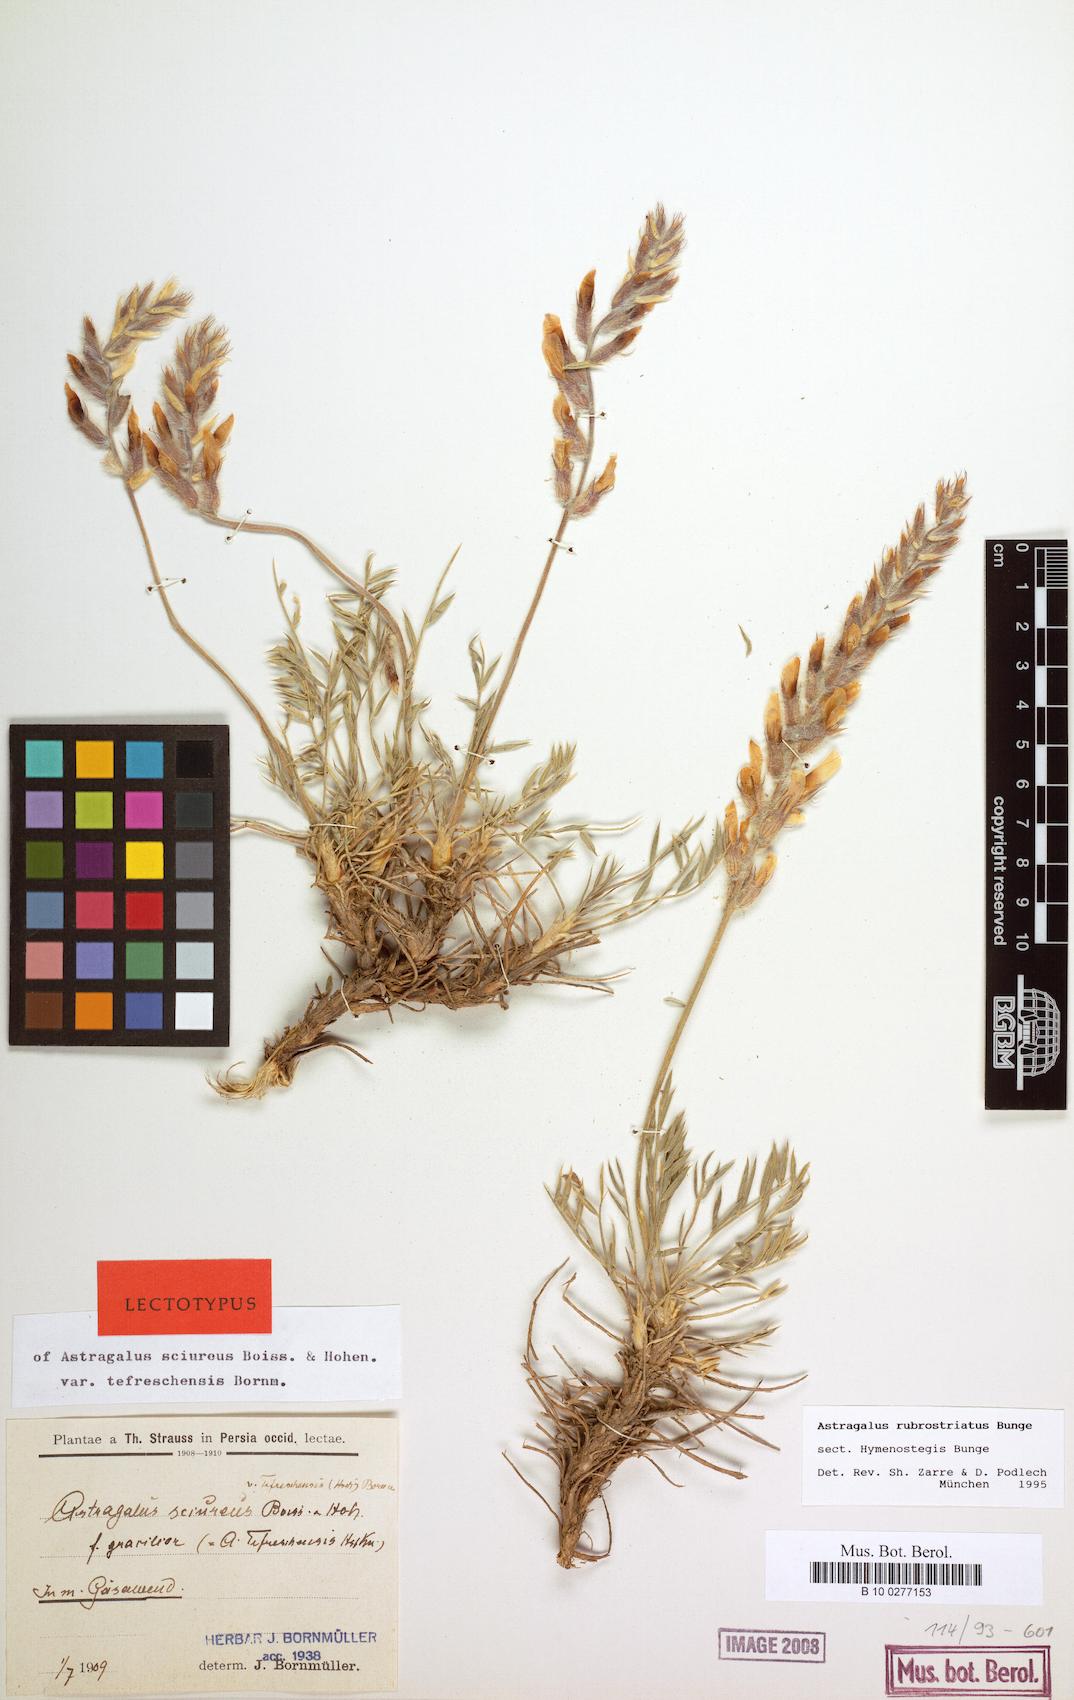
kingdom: Plantae
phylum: Tracheophyta
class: Magnoliopsida
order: Fabales
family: Fabaceae
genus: Astragalus
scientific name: Astragalus rubrostriatus
